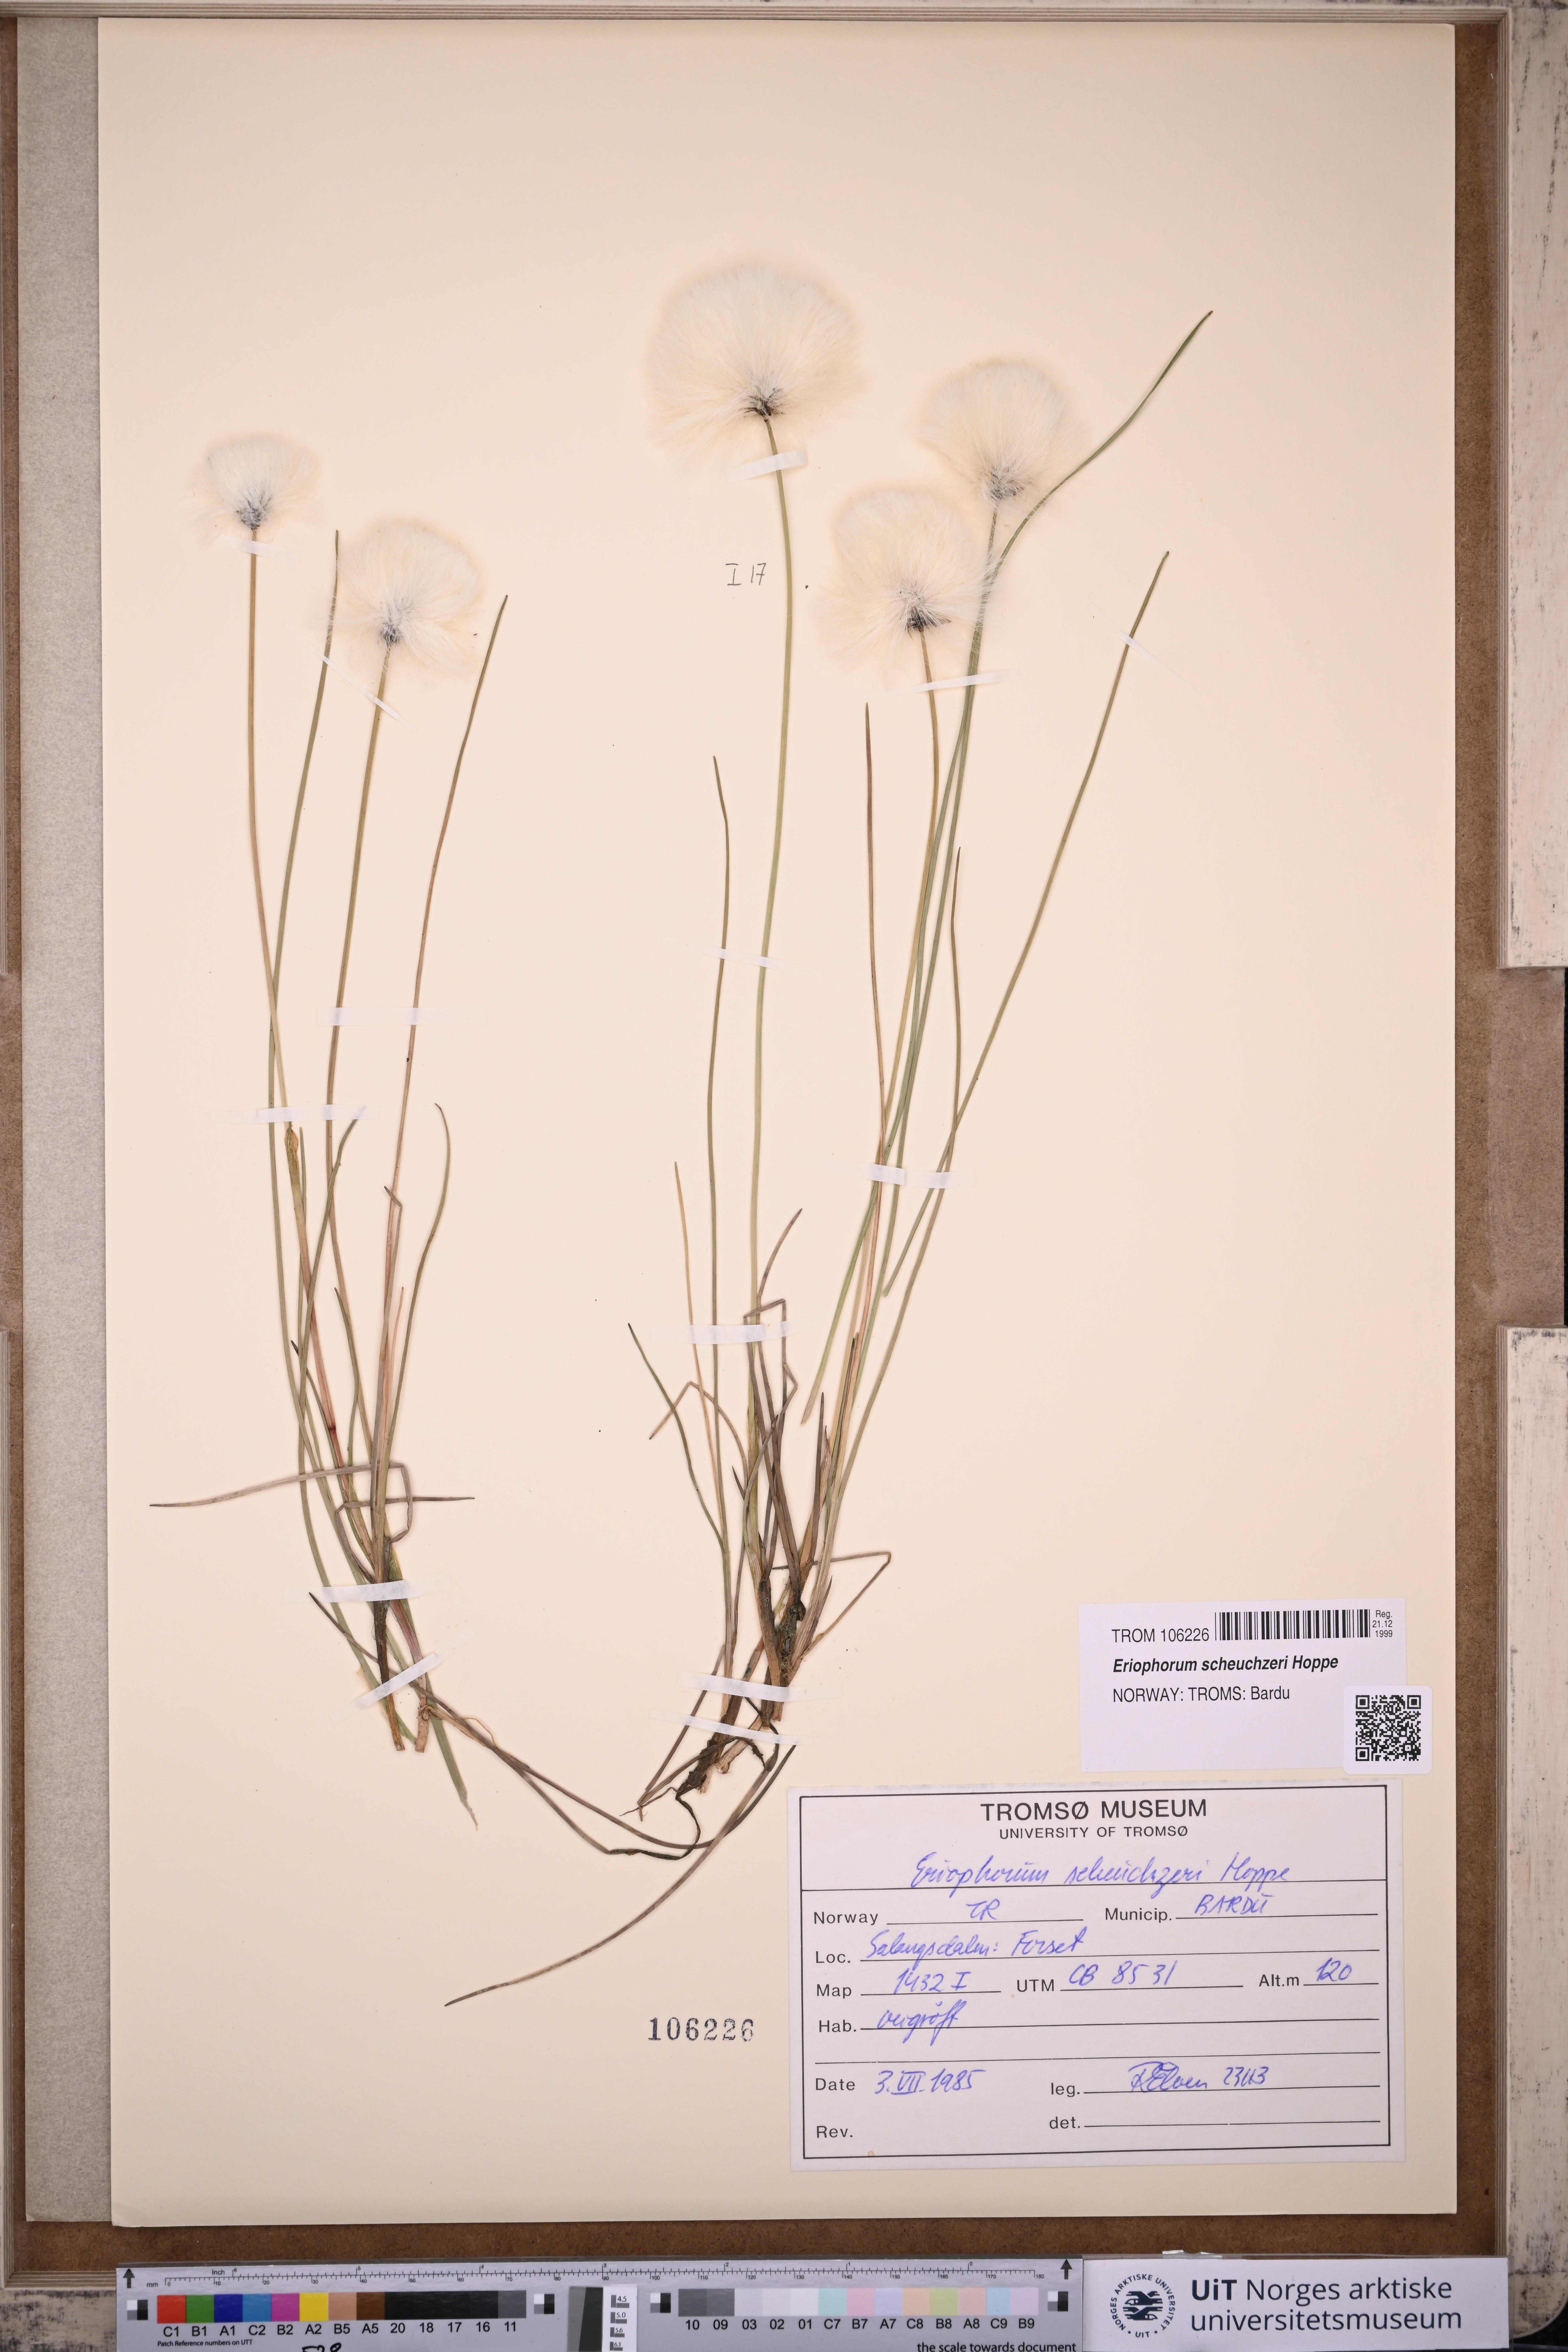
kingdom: Plantae
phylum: Tracheophyta
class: Liliopsida
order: Poales
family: Cyperaceae
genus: Eriophorum
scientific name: Eriophorum scheuchzeri
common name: Scheuchzer's cottongrass
